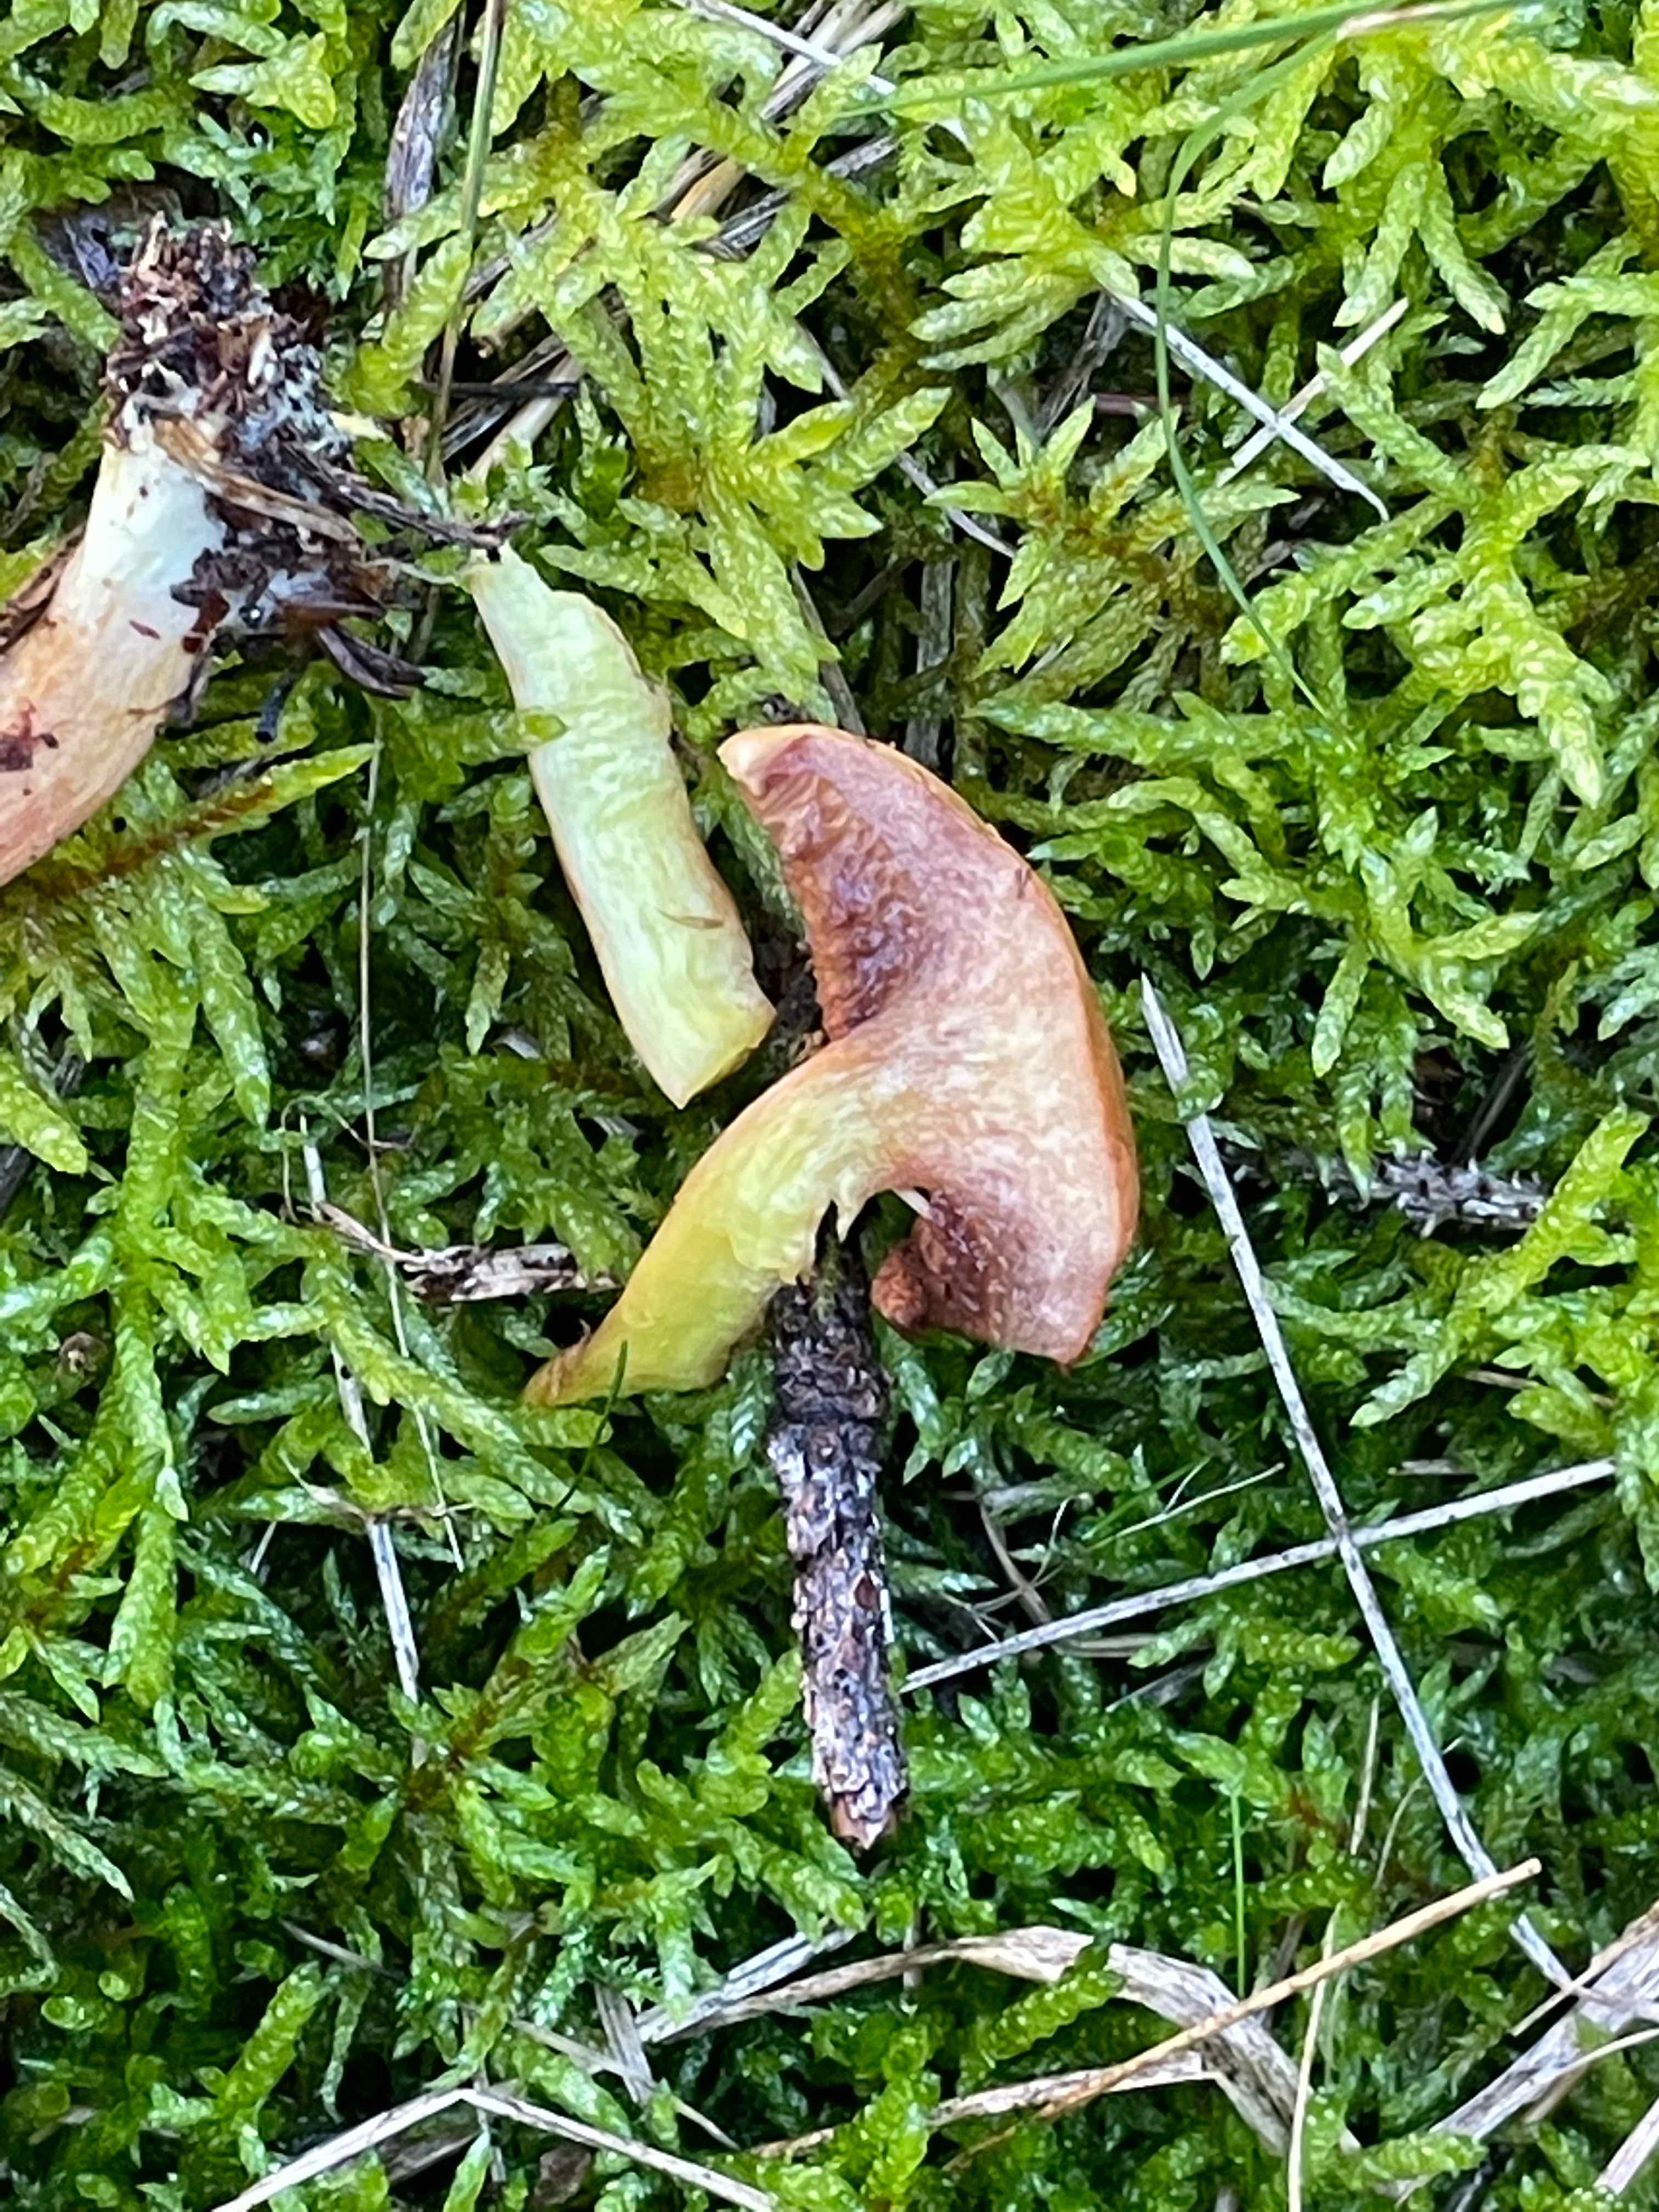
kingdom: Fungi
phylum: Basidiomycota
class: Agaricomycetes
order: Boletales
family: Boletaceae
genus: Chalciporus
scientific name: Chalciporus piperatus
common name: peberrørhat
